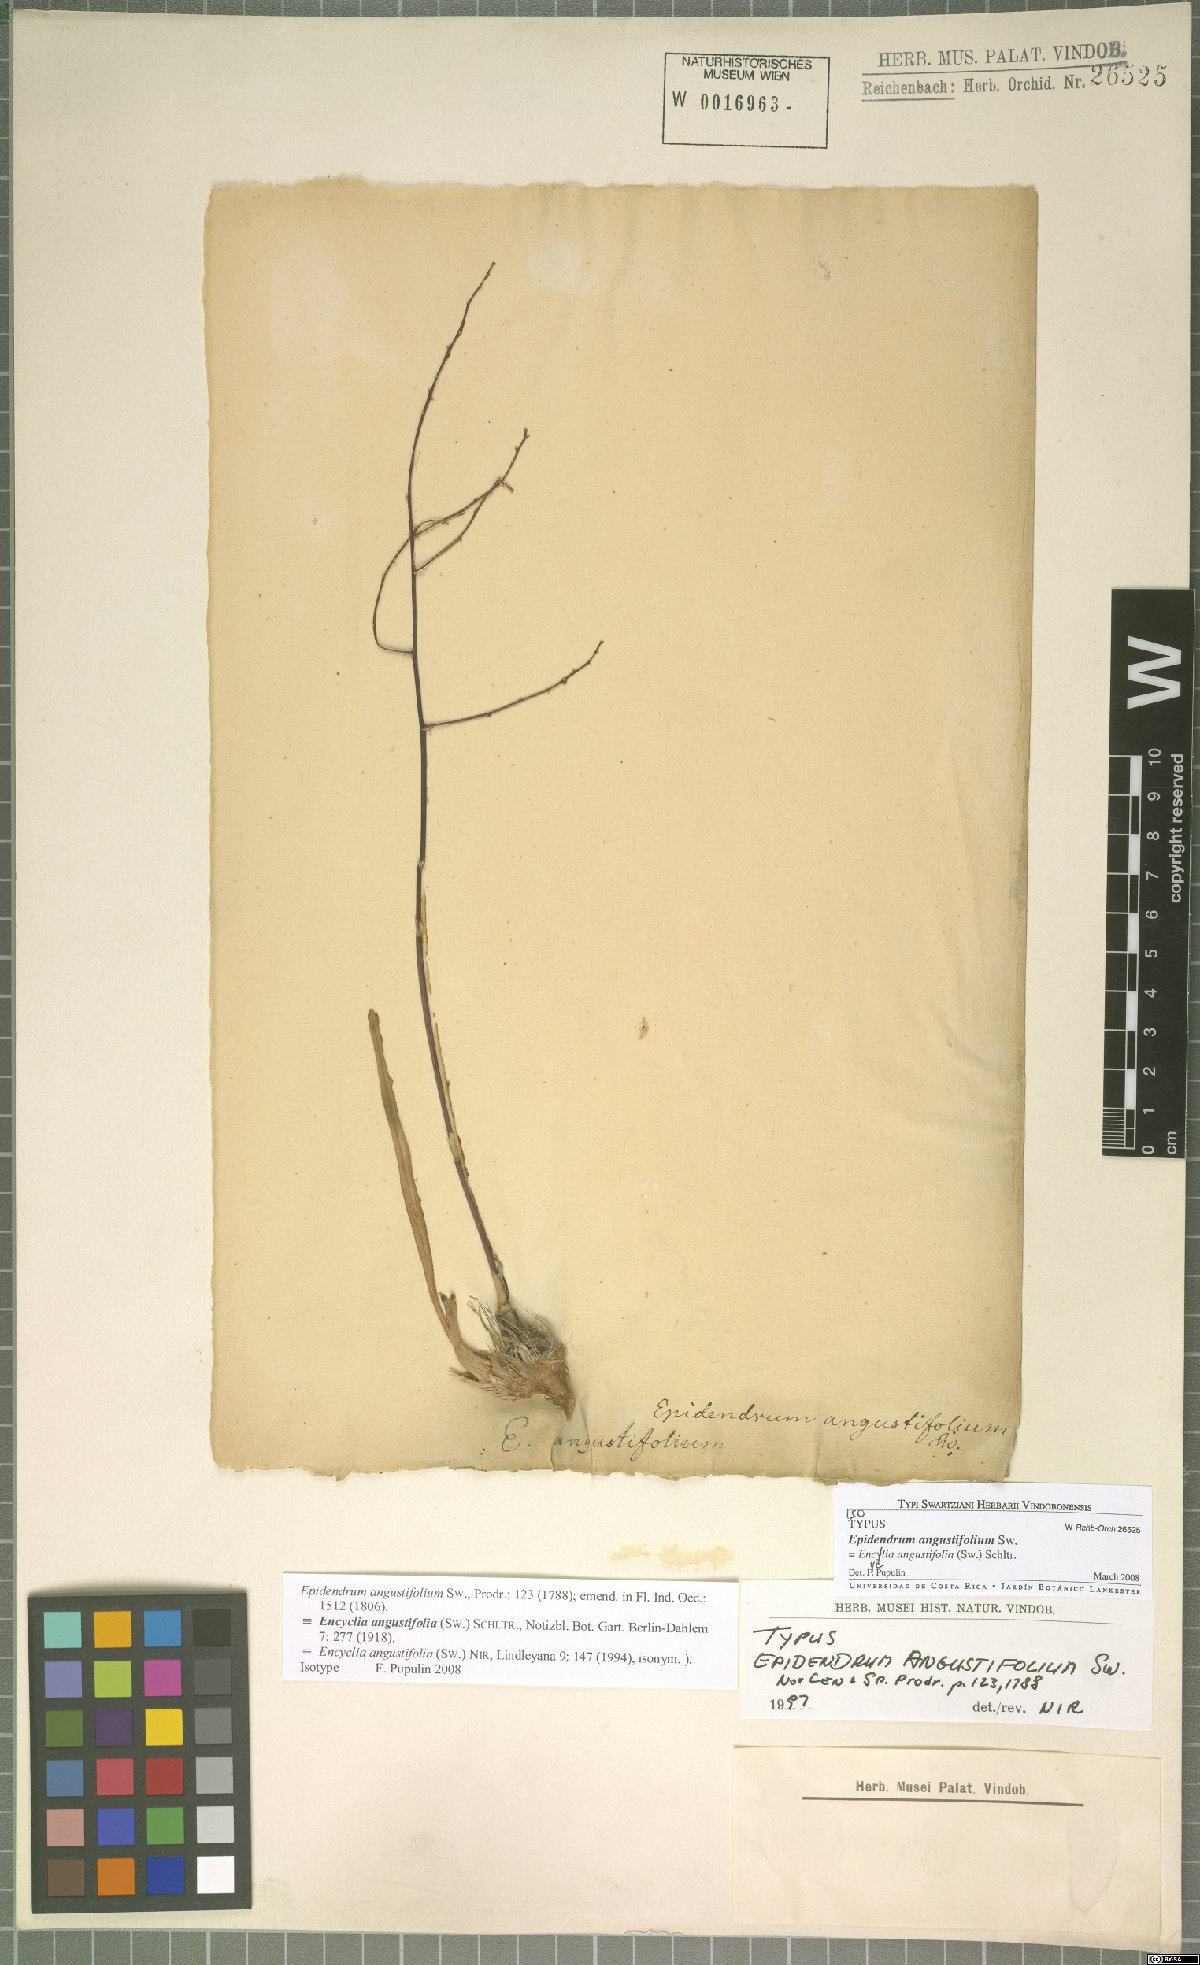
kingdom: Plantae
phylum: Tracheophyta
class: Liliopsida
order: Asparagales
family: Orchidaceae
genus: Encyclia
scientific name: Encyclia angustifolia
